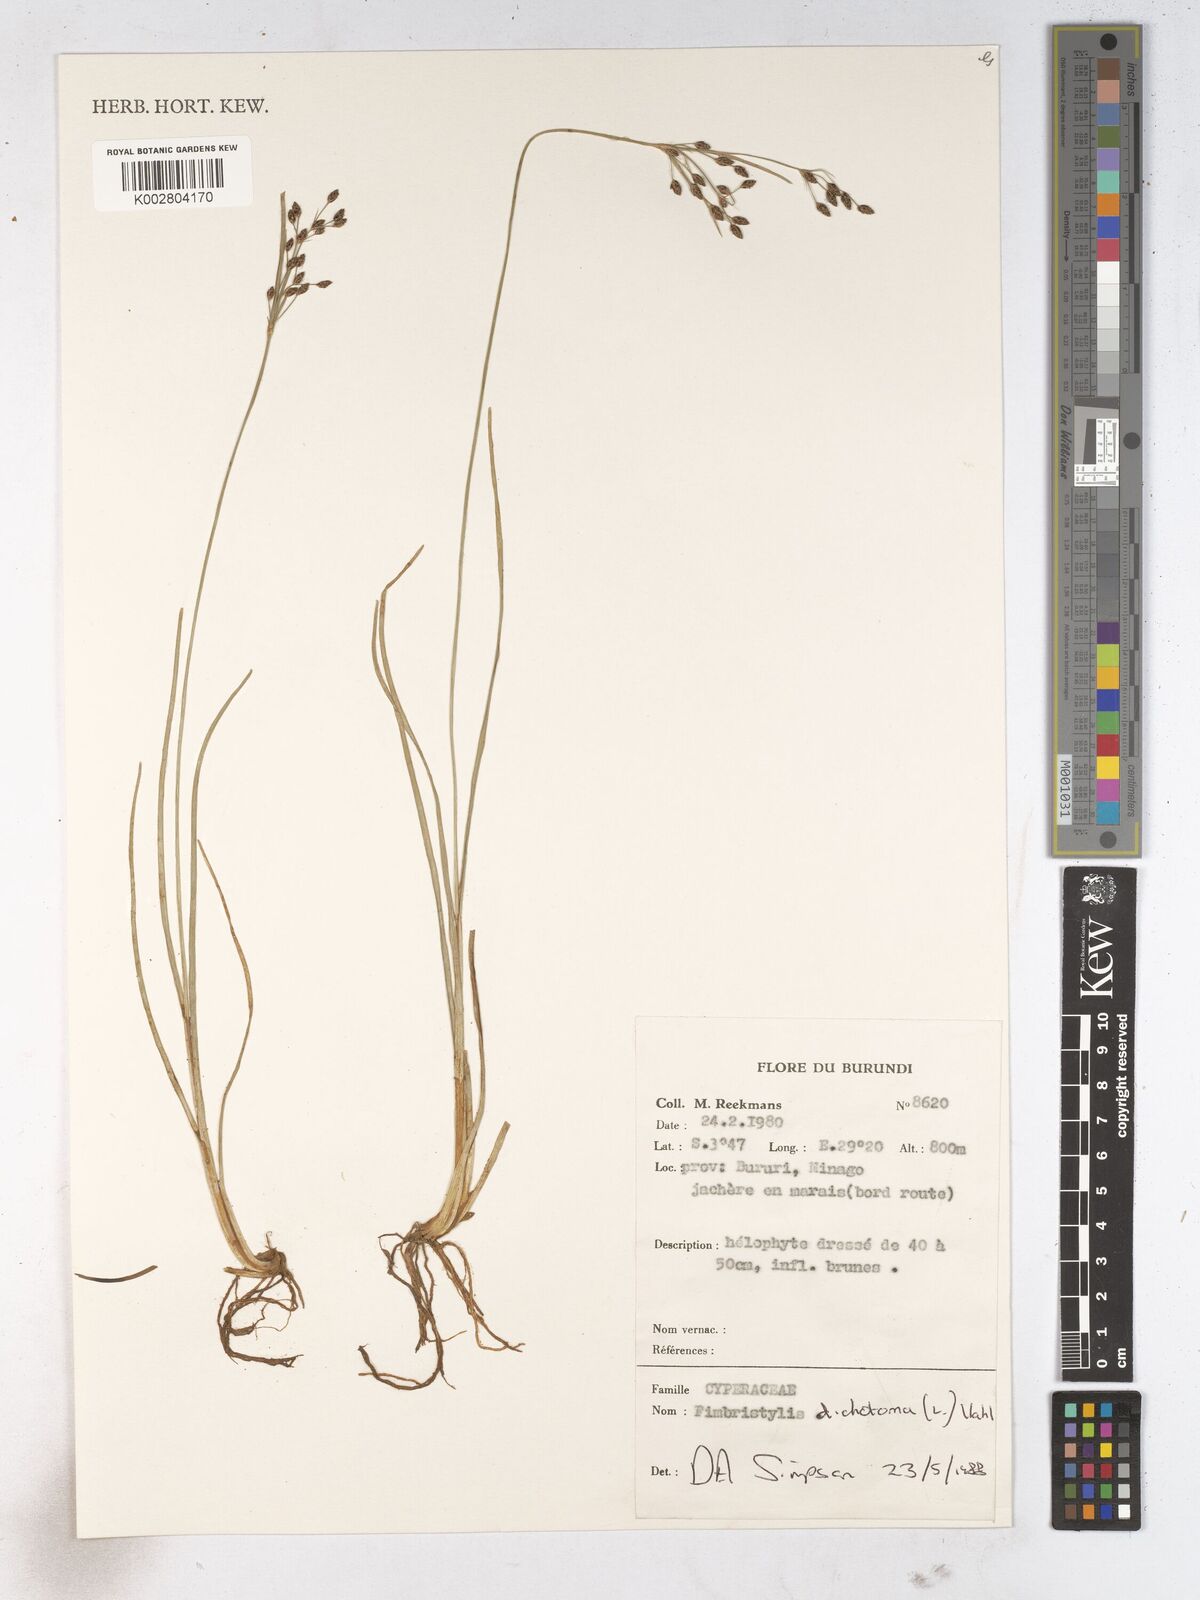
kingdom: Plantae
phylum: Tracheophyta
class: Liliopsida
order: Poales
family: Cyperaceae
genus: Fimbristylis
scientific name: Fimbristylis dichotoma
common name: Forked fimbry
